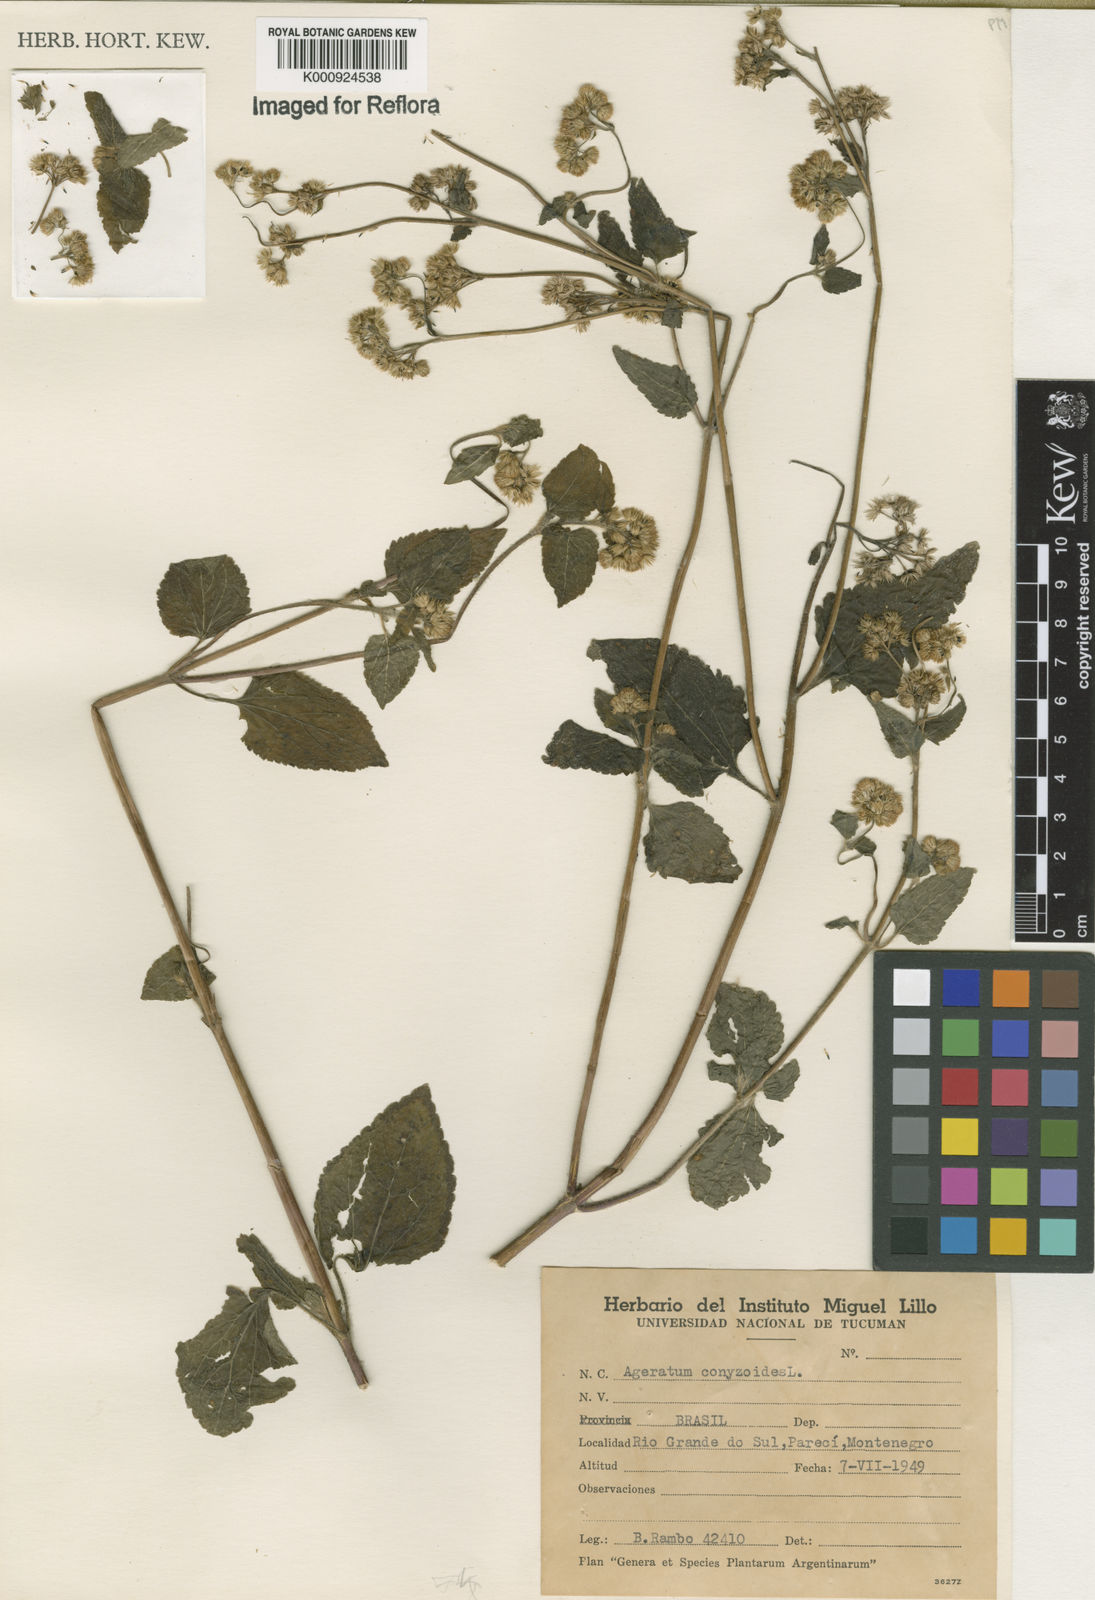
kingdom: Plantae
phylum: Tracheophyta
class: Magnoliopsida
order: Asterales
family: Asteraceae
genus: Ageratum
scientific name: Ageratum conyzoides
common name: Tropical whiteweed
